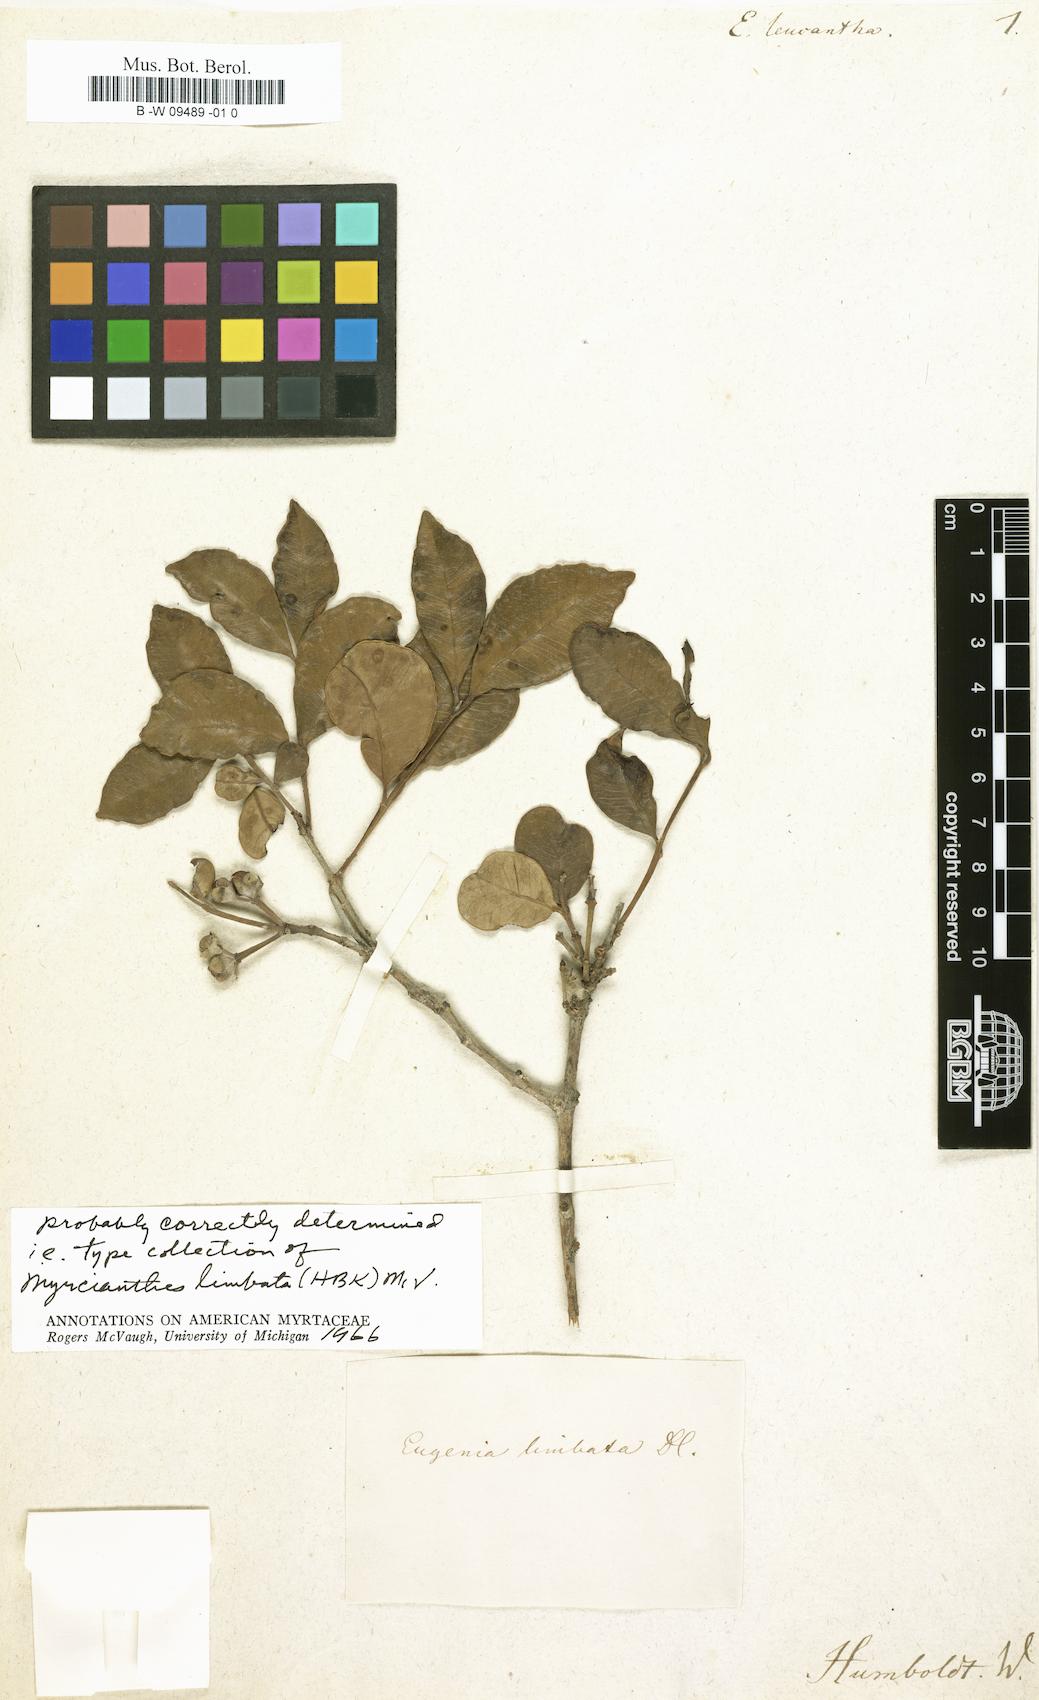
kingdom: Plantae
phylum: Tracheophyta
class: Magnoliopsida
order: Myrtales
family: Myrtaceae
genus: Eugenia
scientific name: Eugenia moschata
